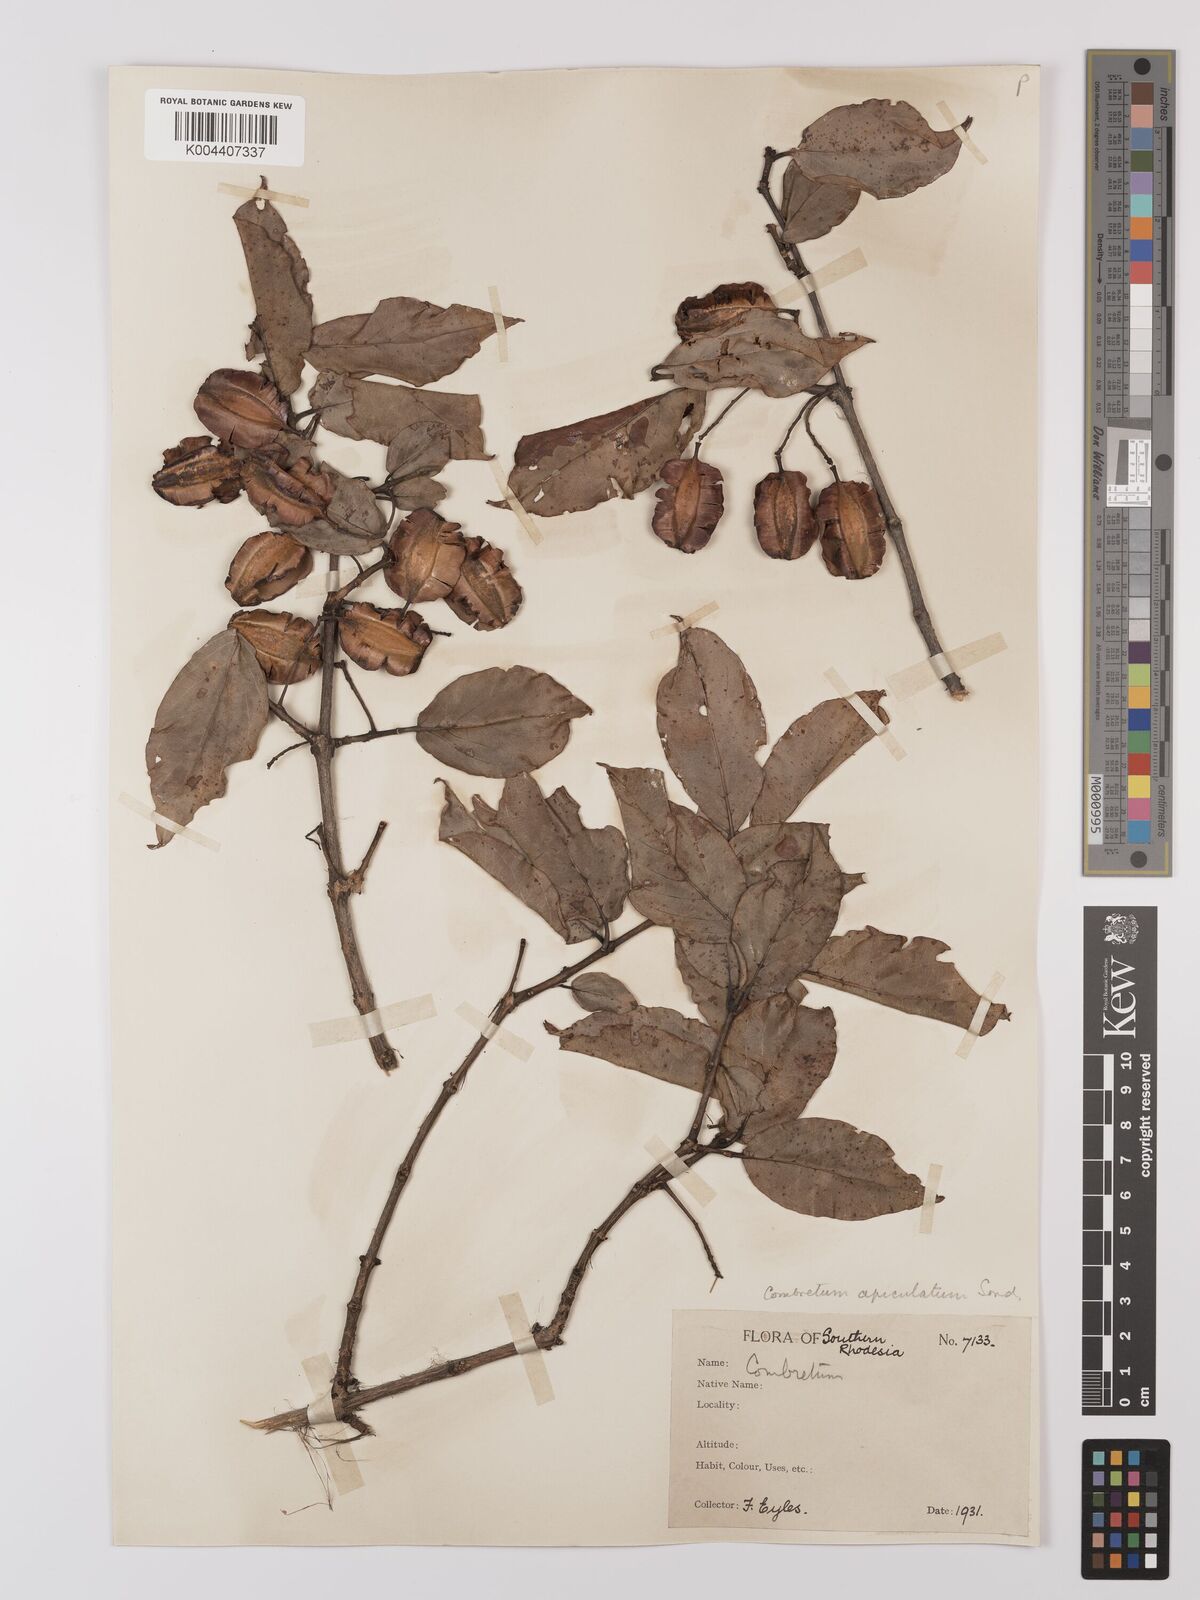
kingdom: Plantae
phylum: Tracheophyta
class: Magnoliopsida
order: Myrtales
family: Combretaceae
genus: Combretum
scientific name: Combretum apiculatum
